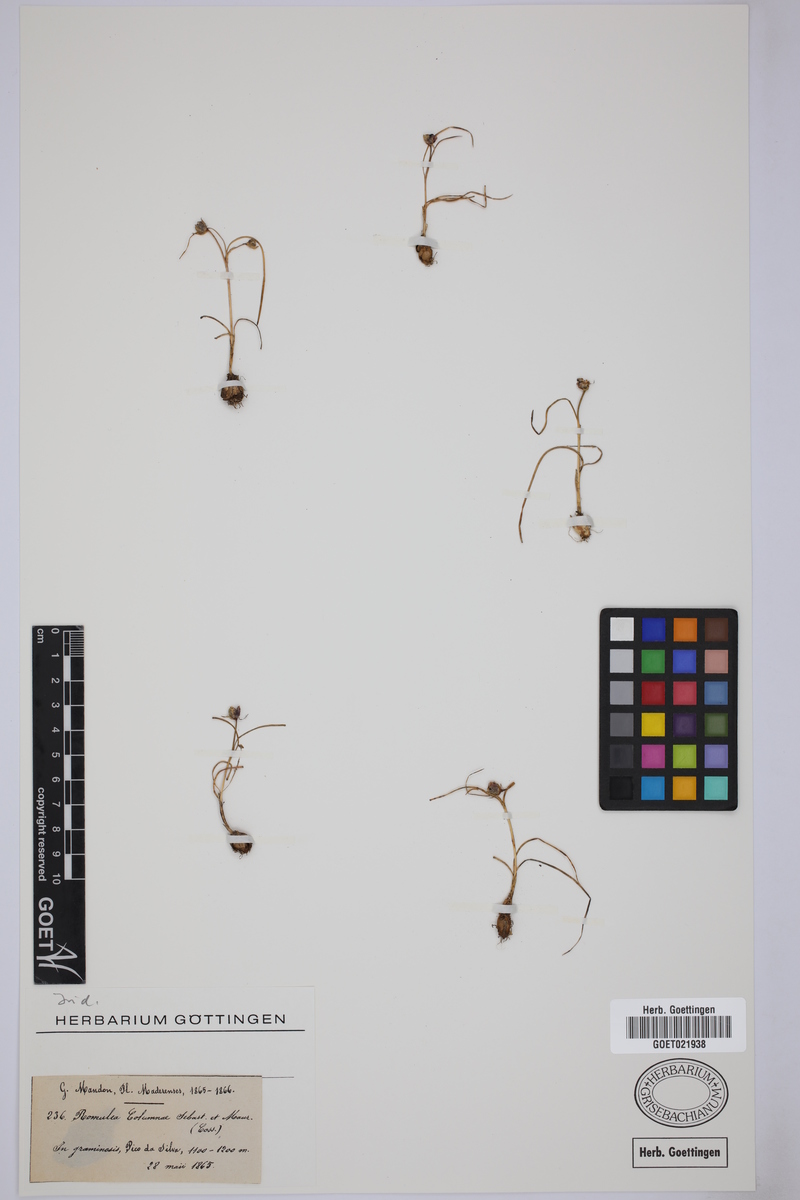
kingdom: Plantae
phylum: Tracheophyta
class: Liliopsida
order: Asparagales
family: Iridaceae
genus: Romulea
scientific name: Romulea columnae
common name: Sand-crocus
